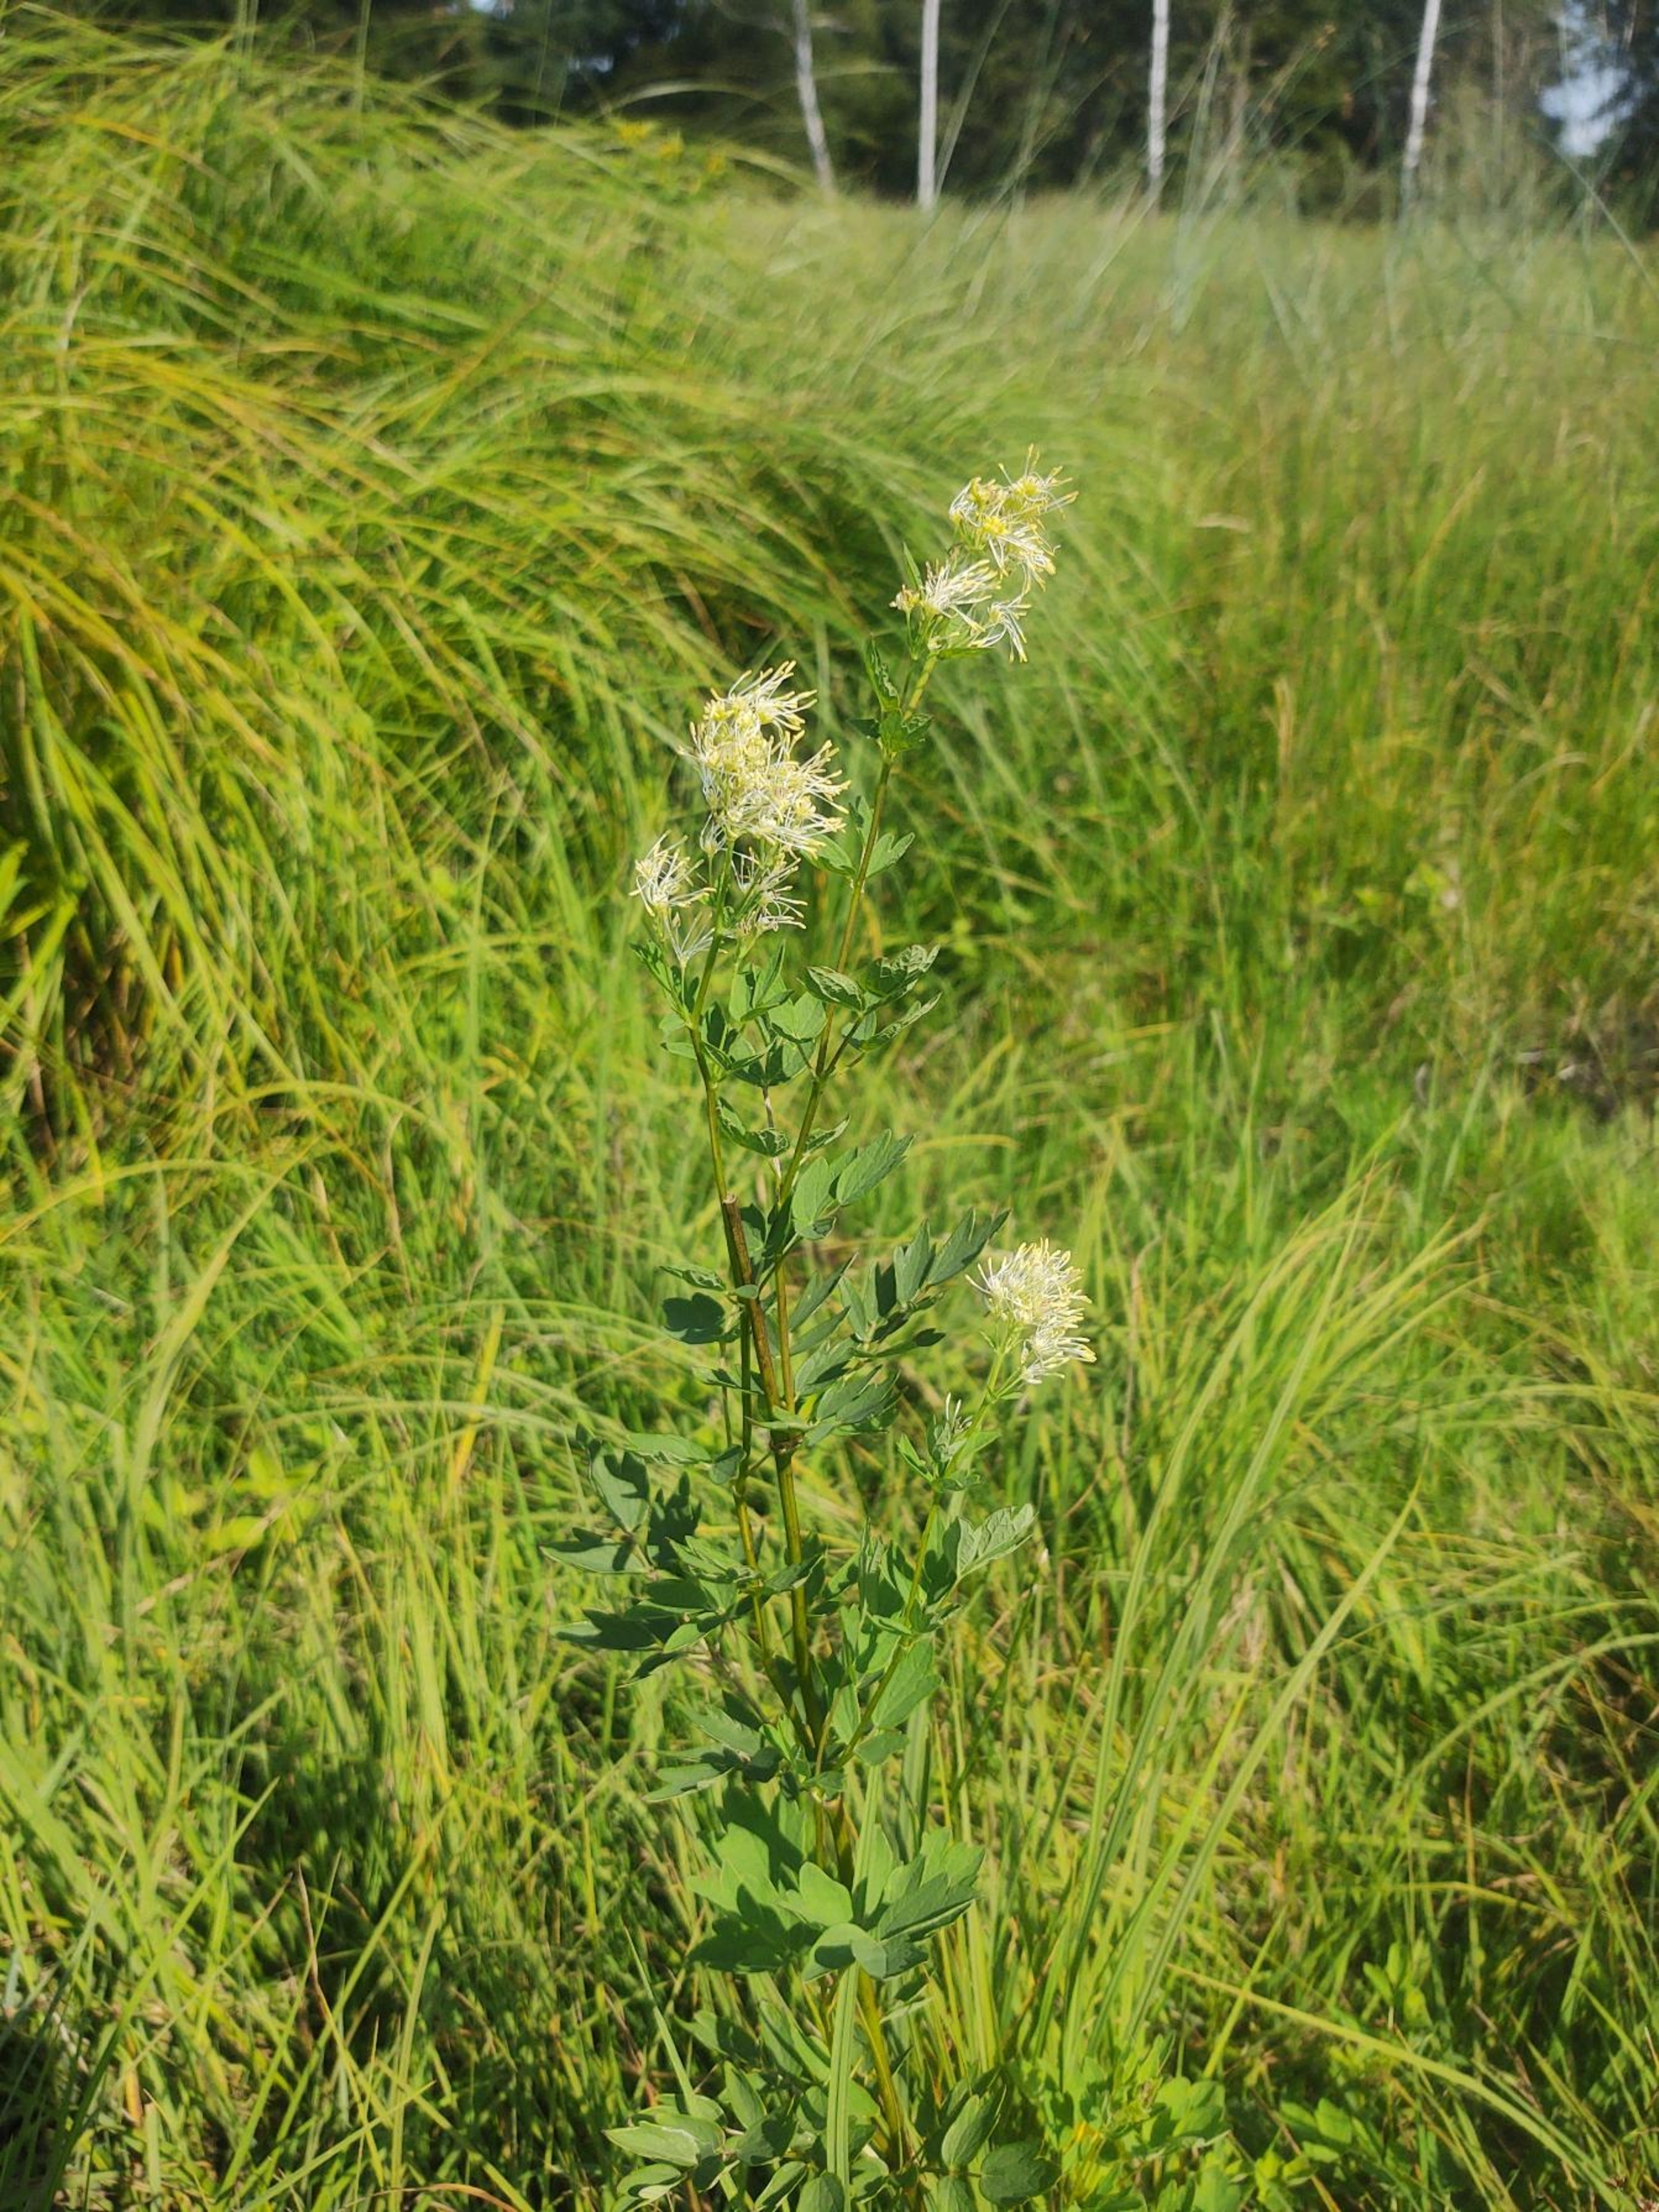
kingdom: Plantae
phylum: Tracheophyta
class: Magnoliopsida
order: Ranunculales
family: Ranunculaceae
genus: Thalictrum
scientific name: Thalictrum flavum
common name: Gul frøstjerne
